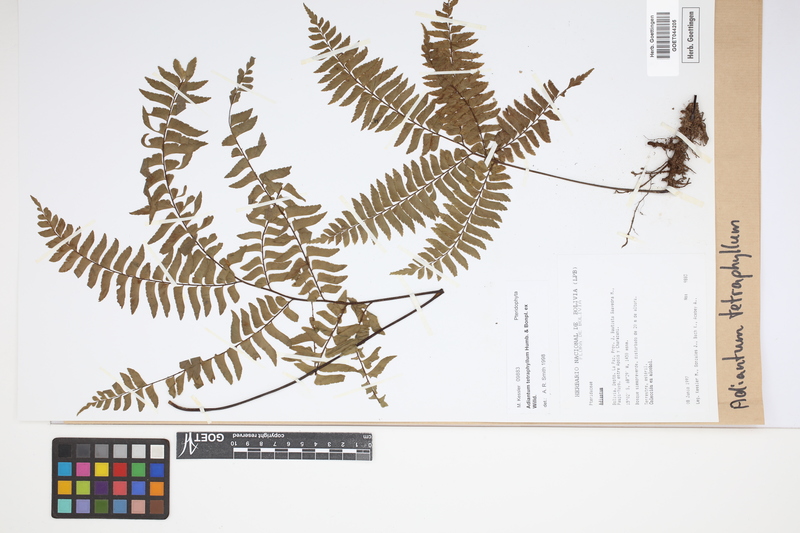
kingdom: Plantae
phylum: Tracheophyta
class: Polypodiopsida
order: Polypodiales
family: Pteridaceae
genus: Adiantum
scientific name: Adiantum tetraphyllum
